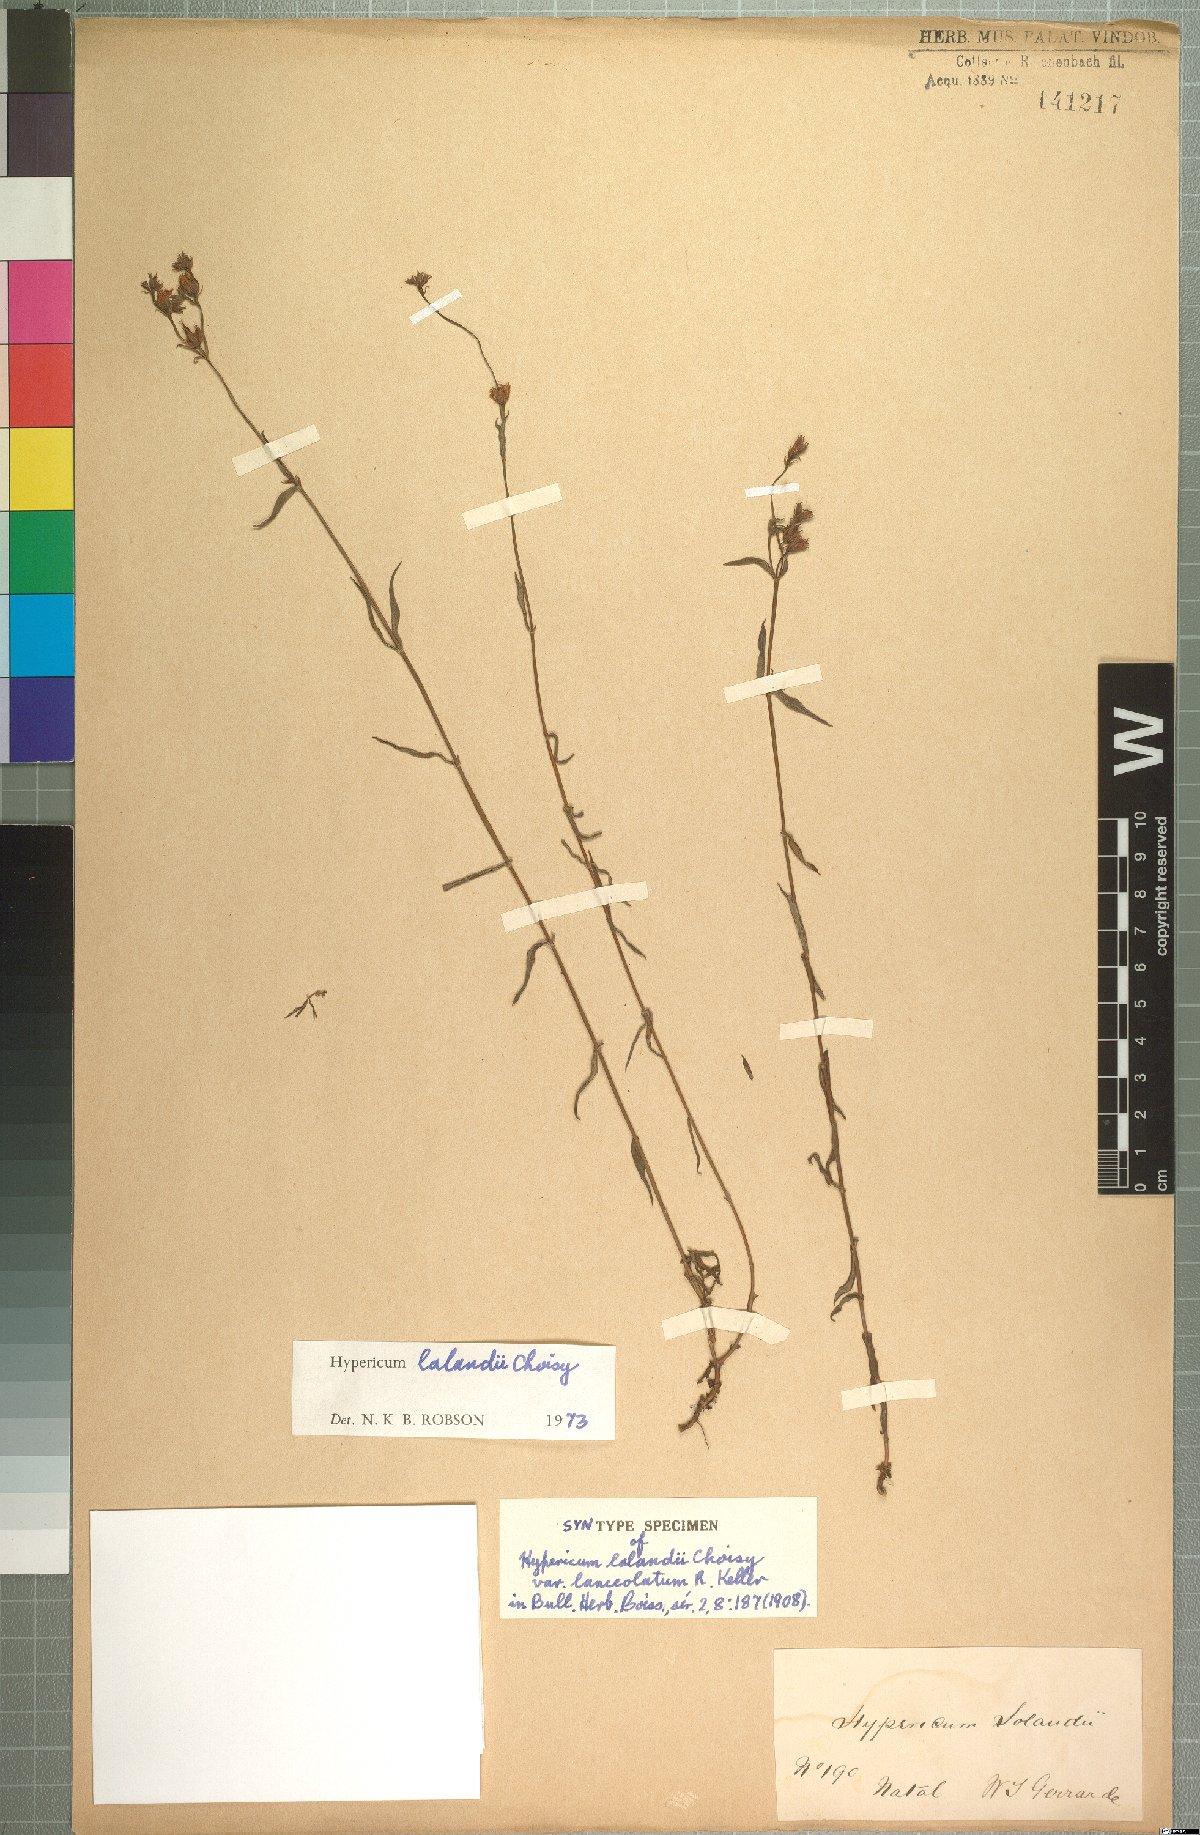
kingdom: Plantae
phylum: Tracheophyta
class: Magnoliopsida
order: Malpighiales
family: Hypericaceae
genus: Hypericum
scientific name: Hypericum lalandii
